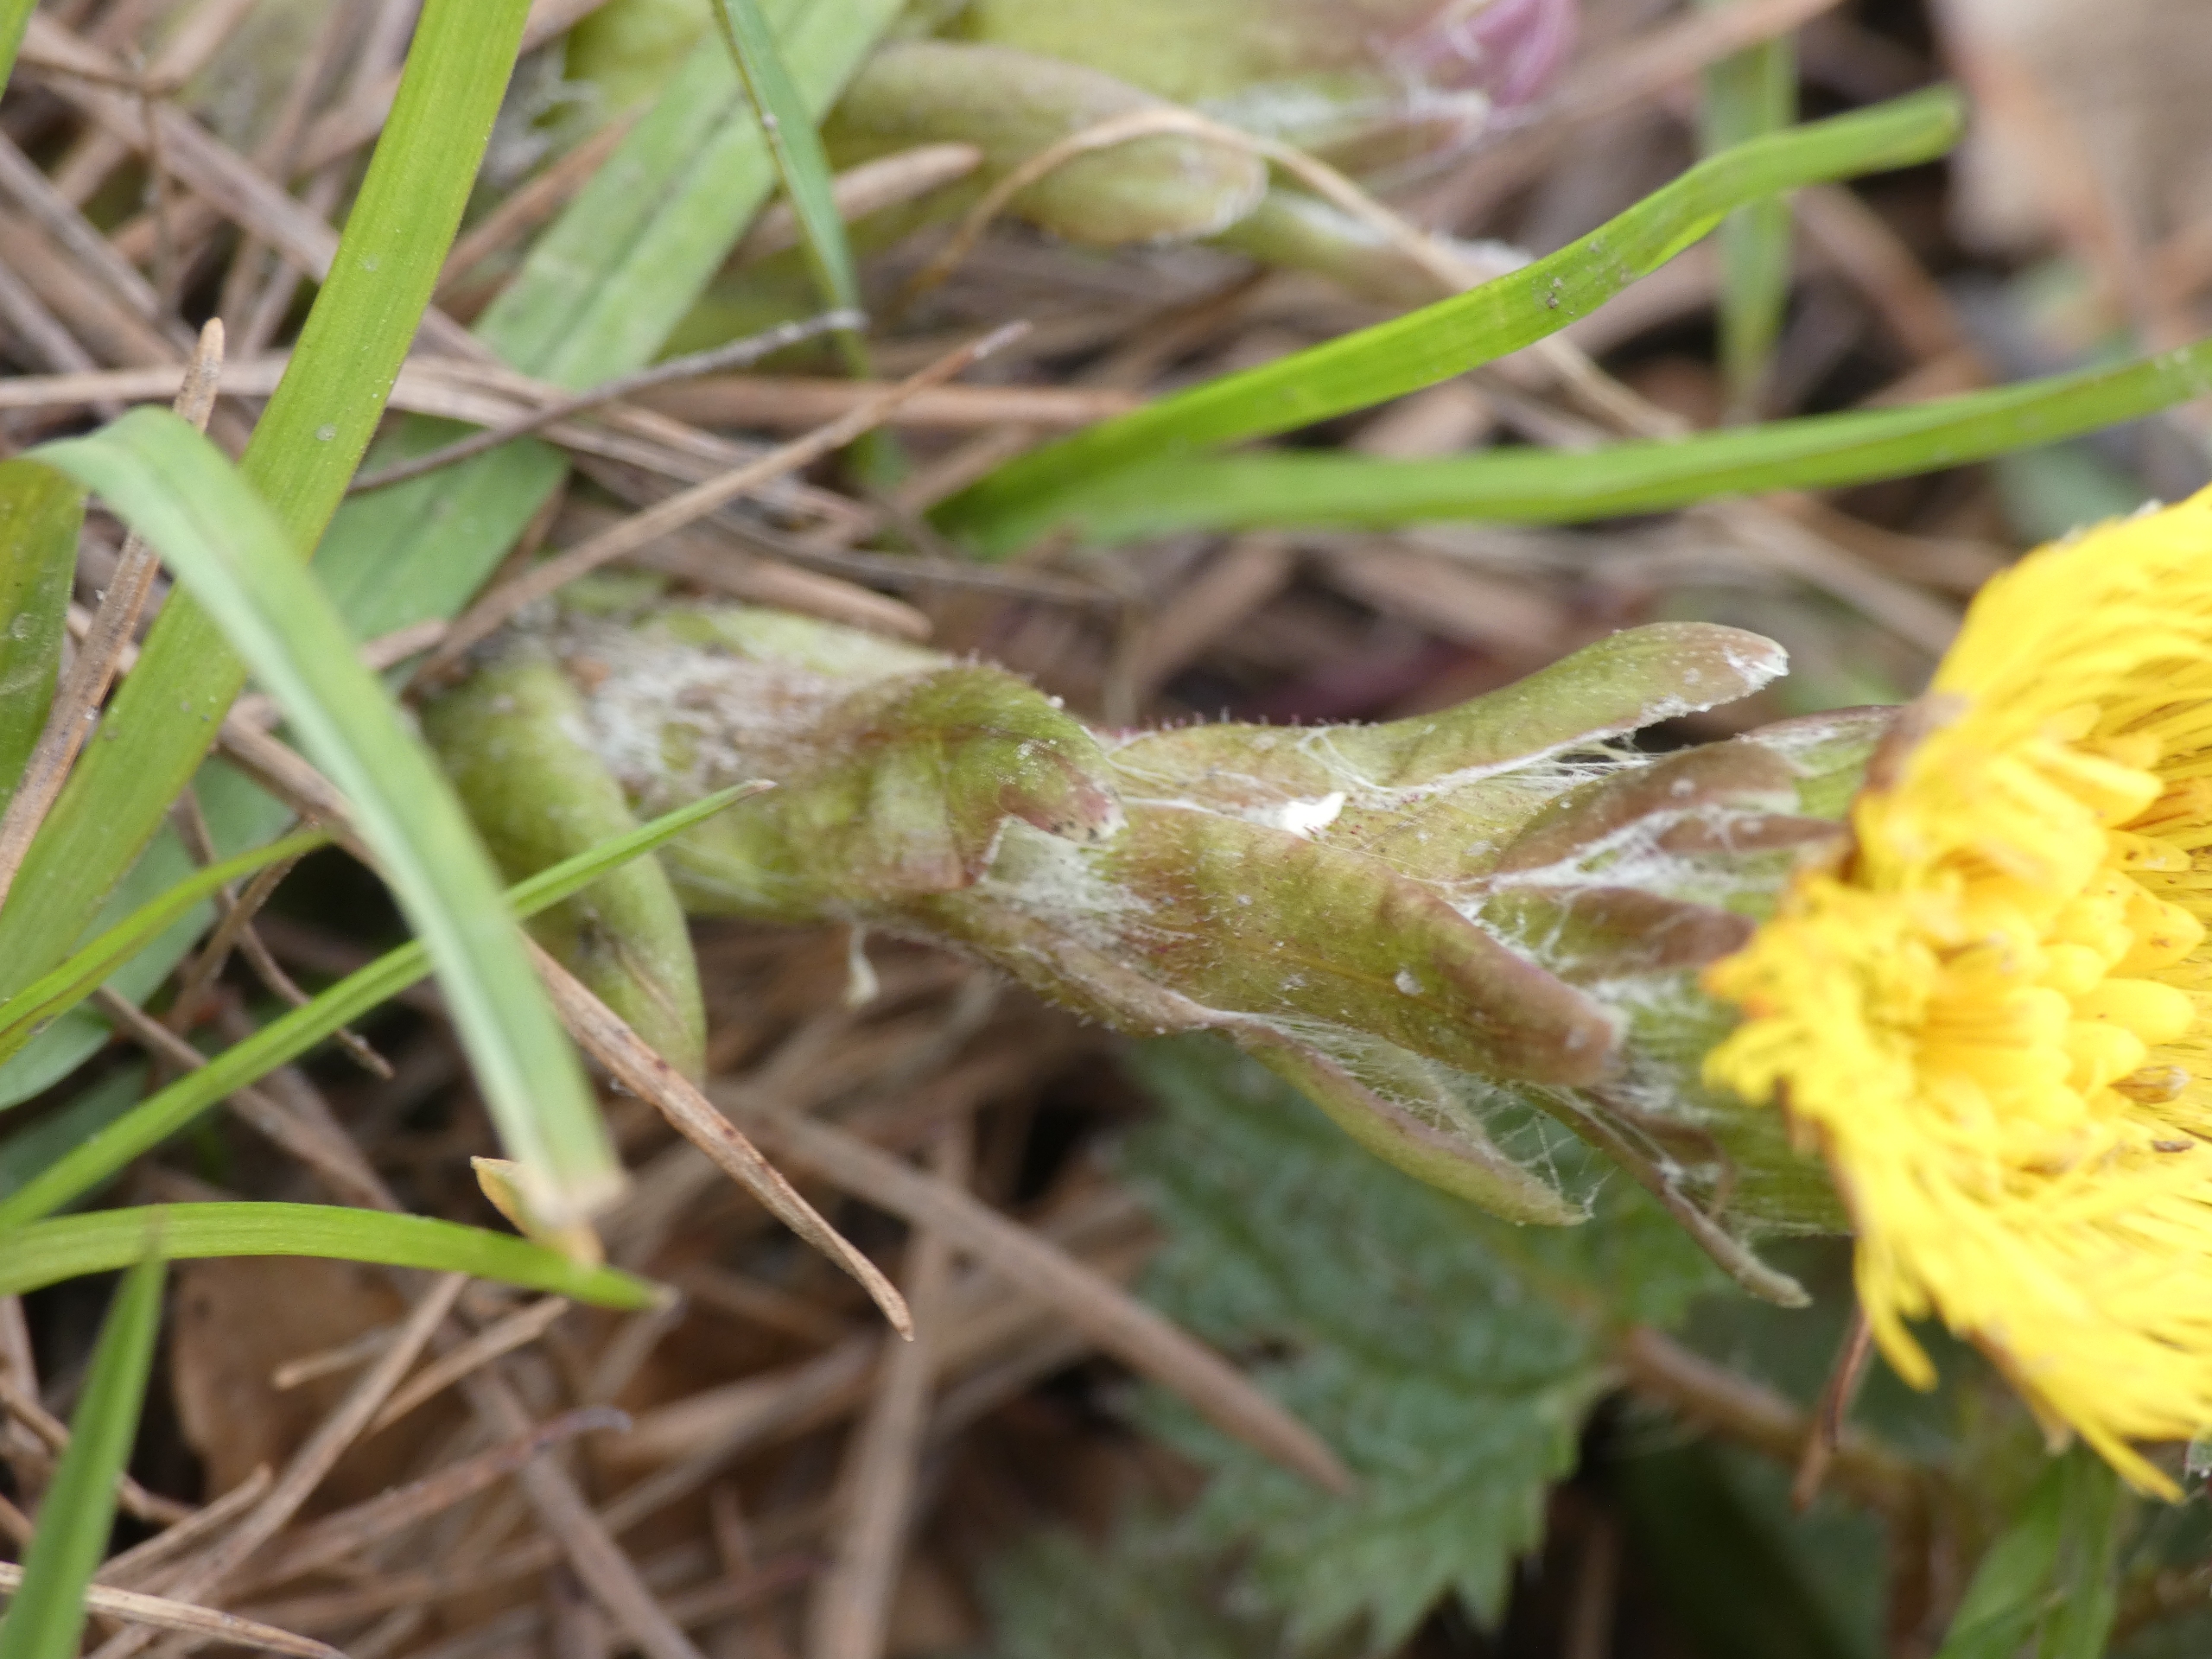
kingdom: Plantae
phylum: Tracheophyta
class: Magnoliopsida
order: Asterales
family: Asteraceae
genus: Tussilago
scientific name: Tussilago farfara
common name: Følfod
